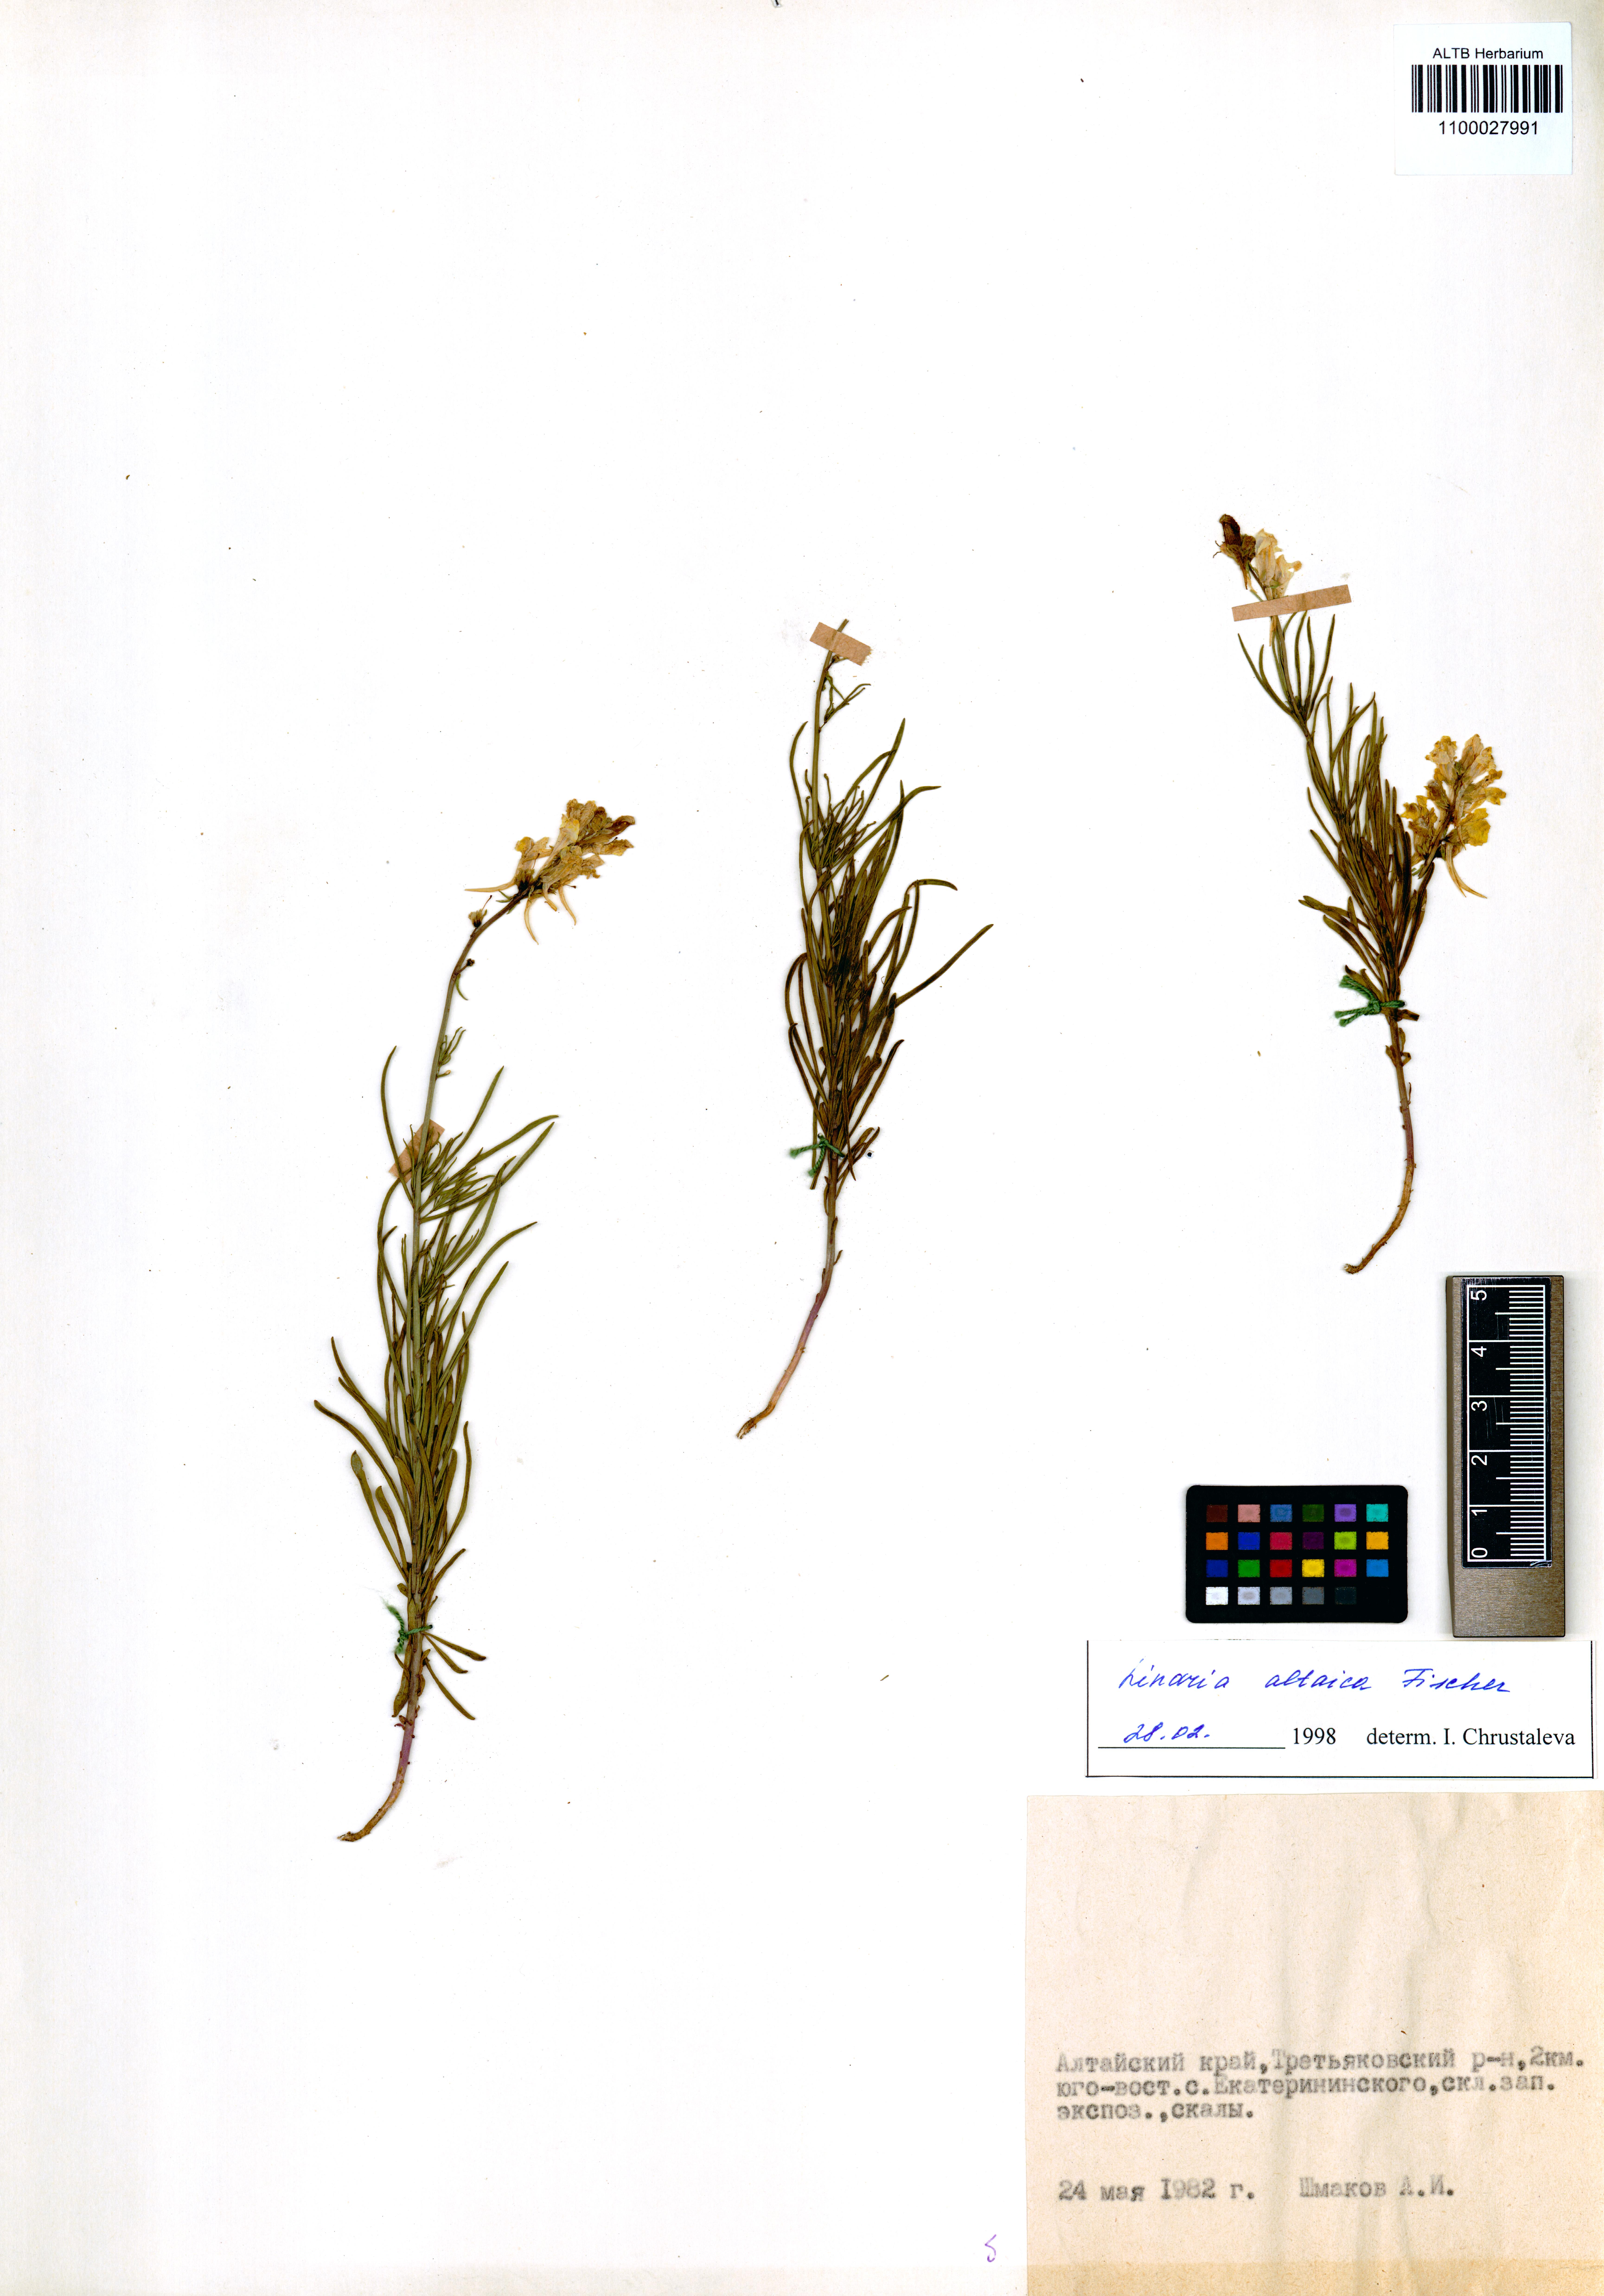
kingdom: Plantae
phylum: Tracheophyta
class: Magnoliopsida
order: Lamiales
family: Plantaginaceae
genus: Linaria
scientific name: Linaria altaica
